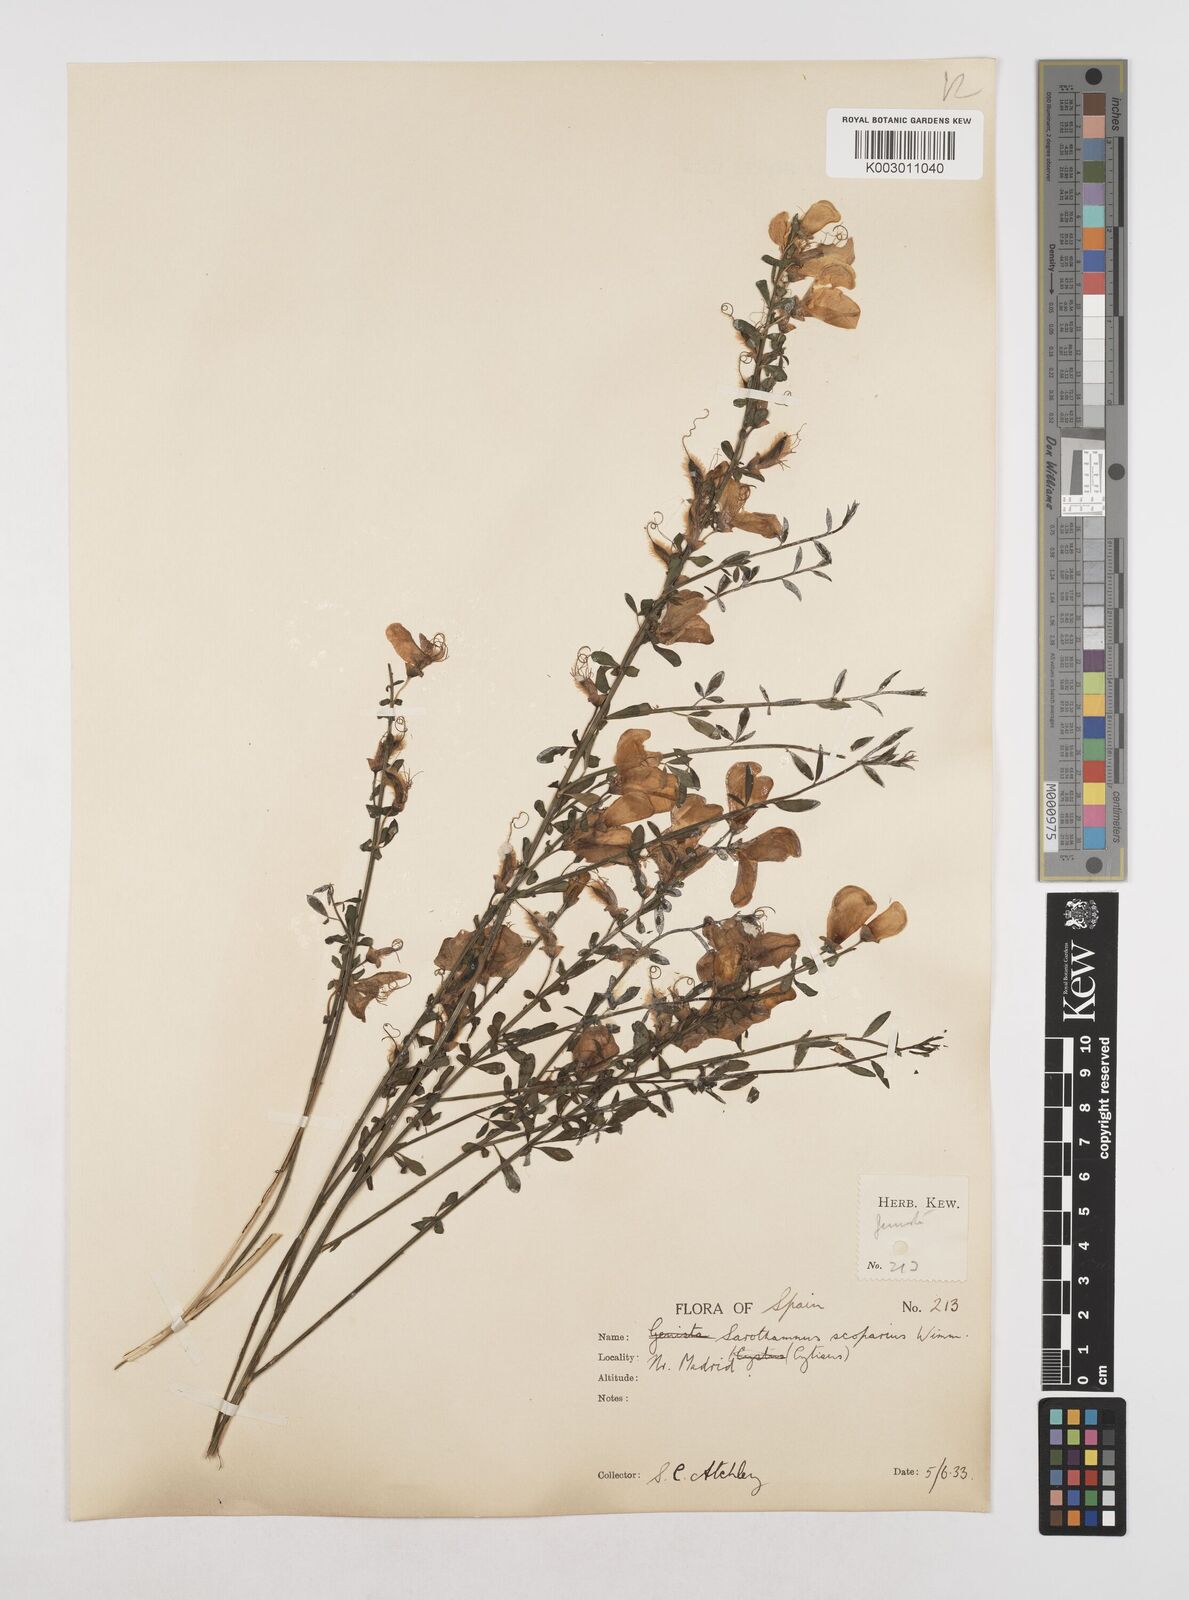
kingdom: Plantae
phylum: Tracheophyta
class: Magnoliopsida
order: Fabales
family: Fabaceae
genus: Cytisus
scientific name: Cytisus scoparius
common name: Scotch broom
